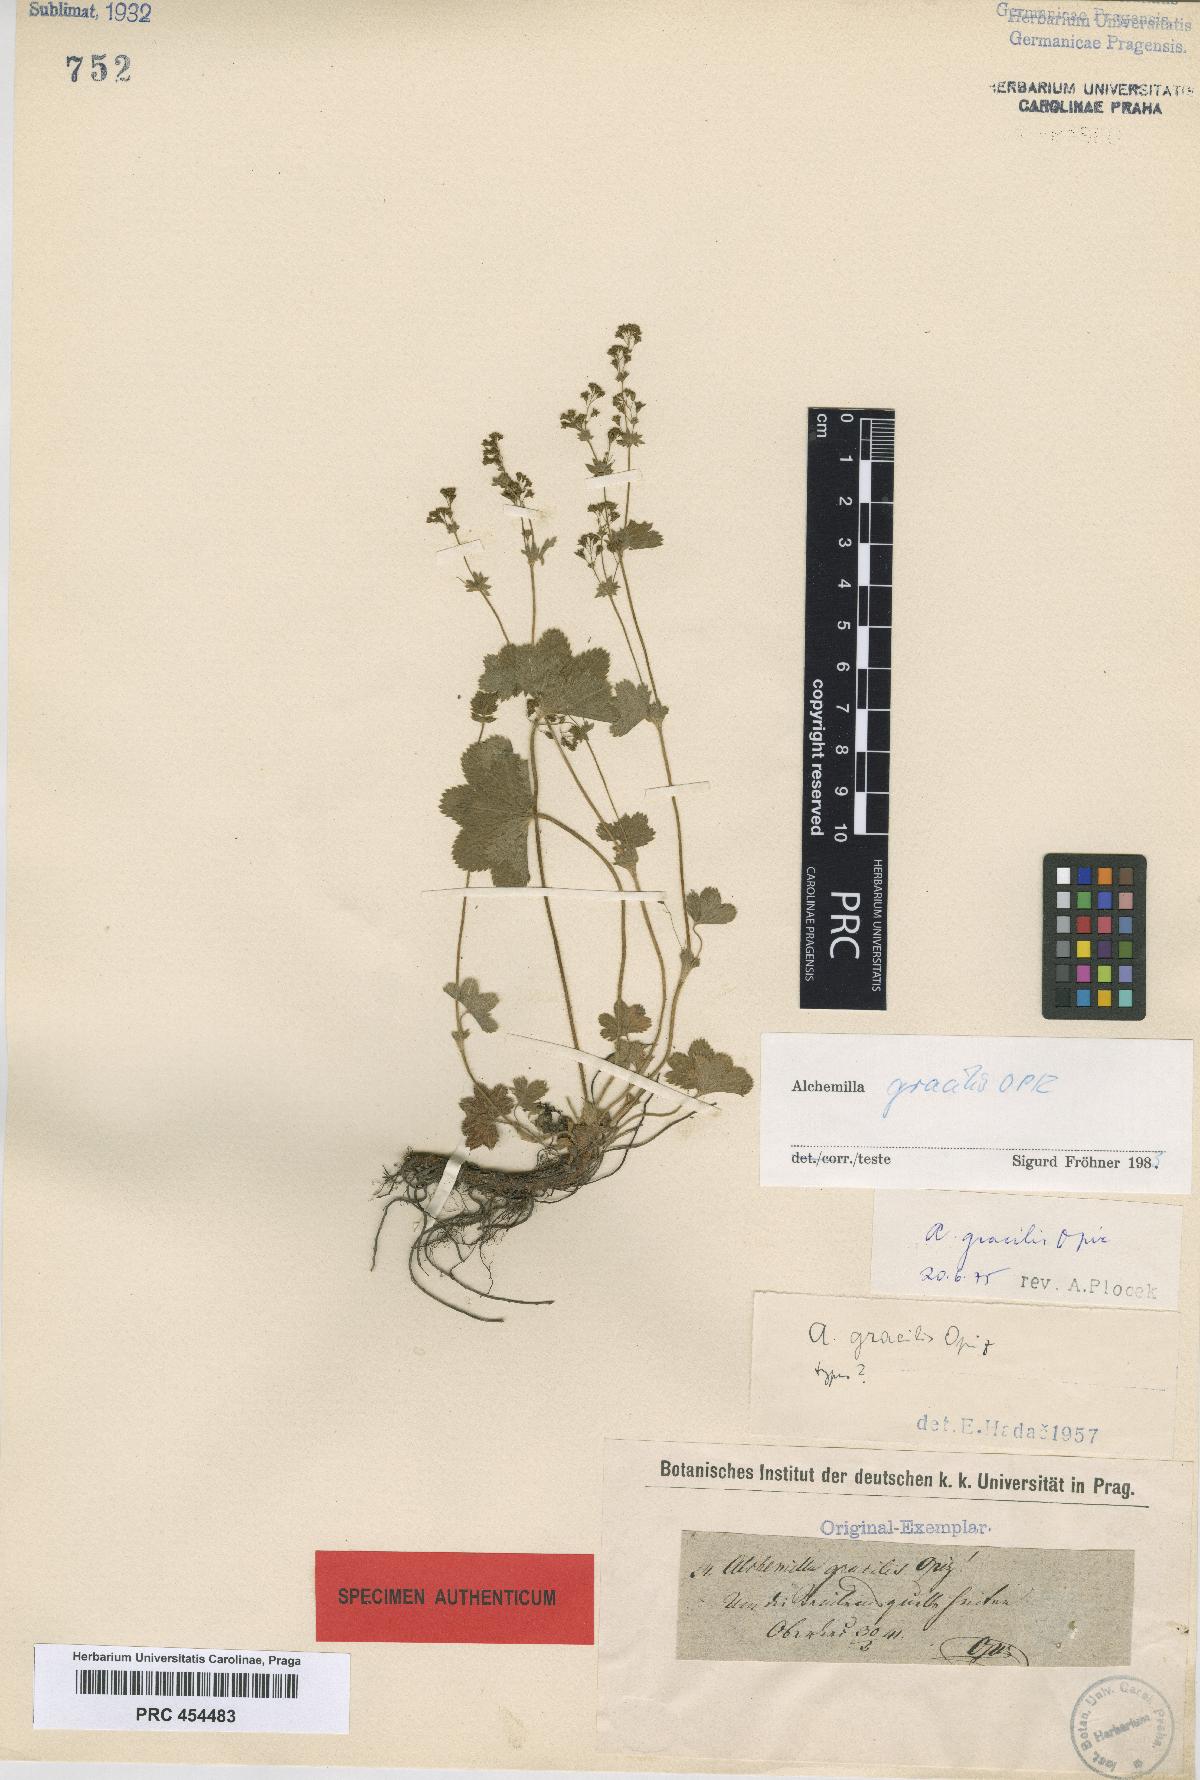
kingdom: Plantae
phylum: Tracheophyta
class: Magnoliopsida
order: Rosales
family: Rosaceae
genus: Alchemilla
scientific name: Alchemilla monticola
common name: Hairy lady's mantle
